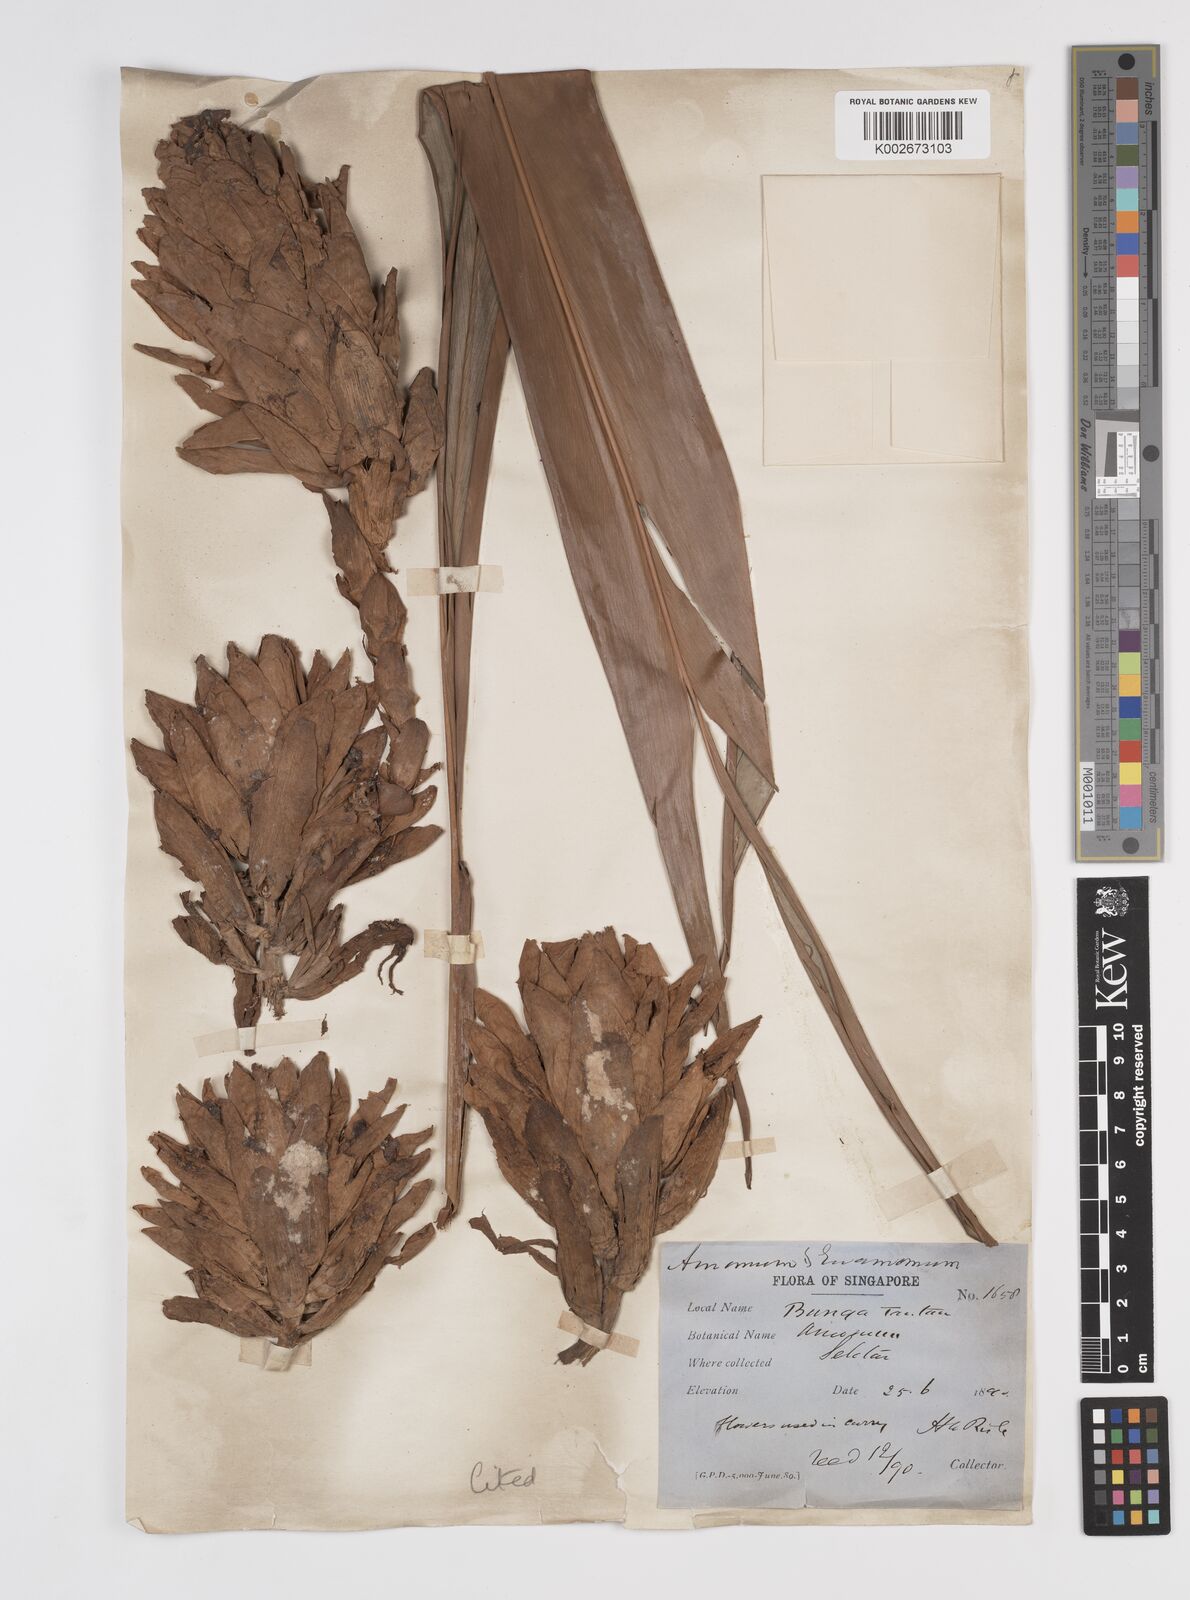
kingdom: Plantae
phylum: Tracheophyta
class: Liliopsida
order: Zingiberales
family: Zingiberaceae
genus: Conamomum
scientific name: Conamomum xanthophlebium
